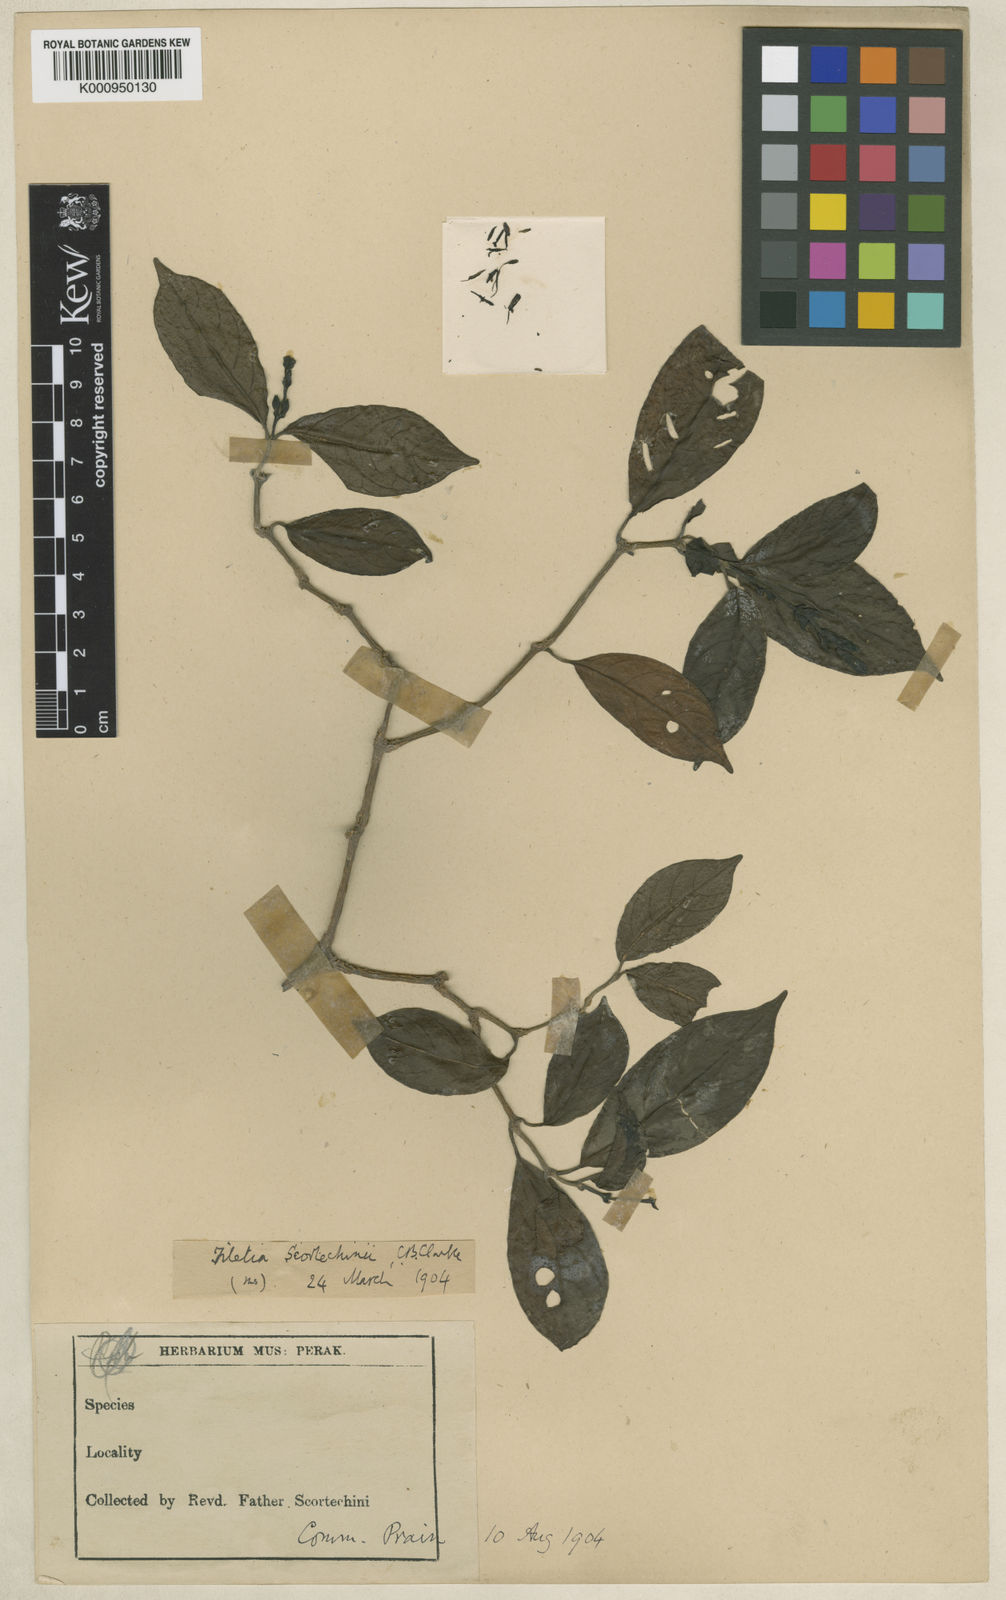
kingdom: Plantae
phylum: Tracheophyta
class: Magnoliopsida
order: Lamiales
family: Acanthaceae
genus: Filetia
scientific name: Filetia scortechinii
